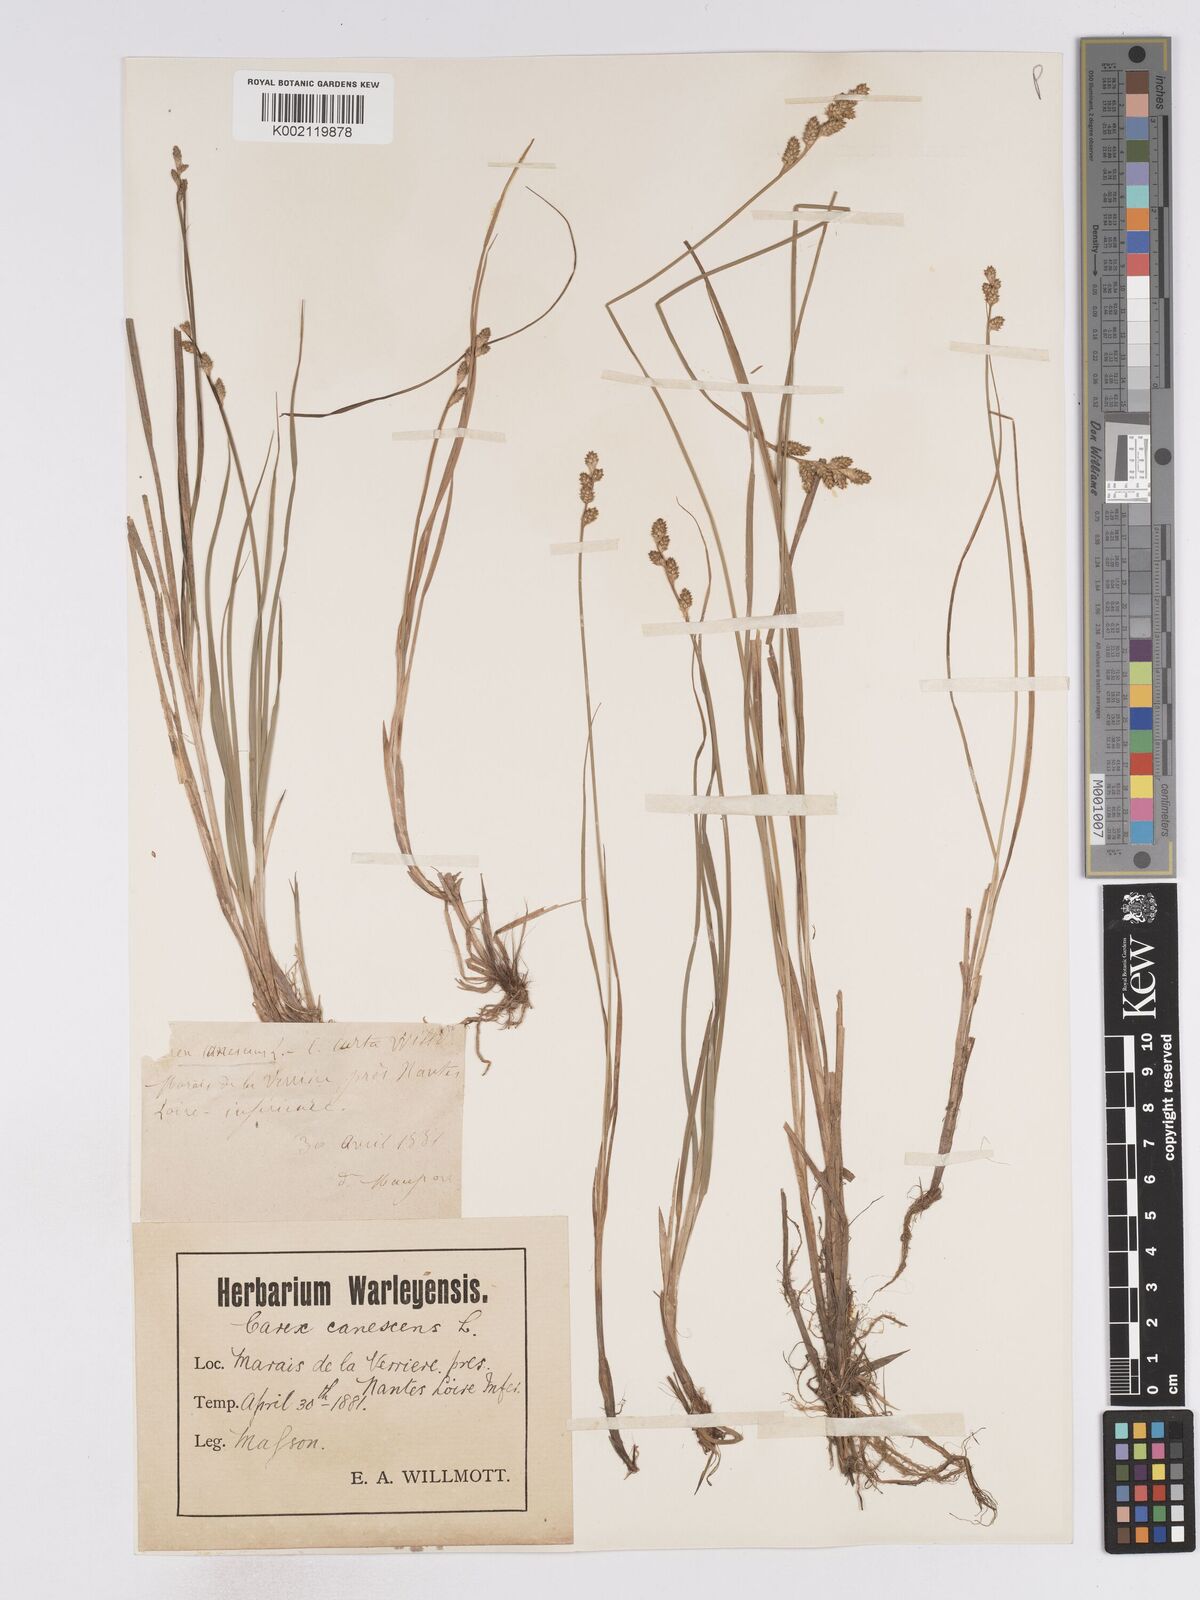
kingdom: Plantae
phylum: Tracheophyta
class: Liliopsida
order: Poales
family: Cyperaceae
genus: Carex
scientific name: Carex curta
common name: White sedge
